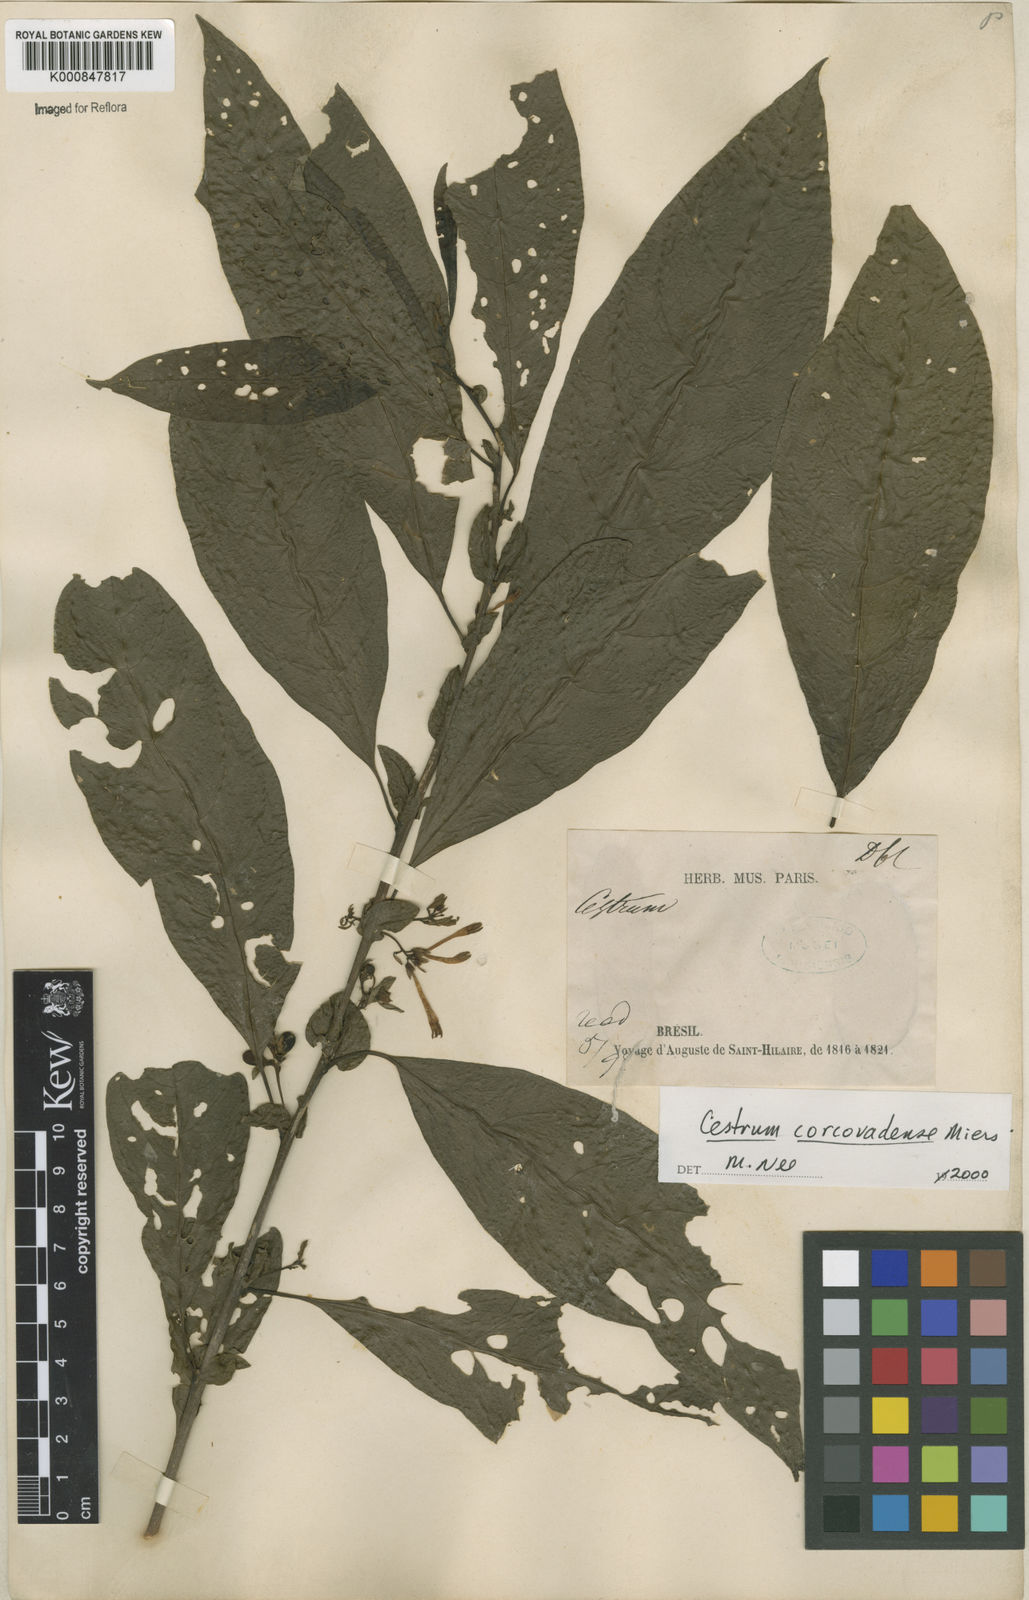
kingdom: Plantae
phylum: Tracheophyta
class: Magnoliopsida
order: Solanales
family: Solanaceae
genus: Cestrum
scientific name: Cestrum corcovadense
